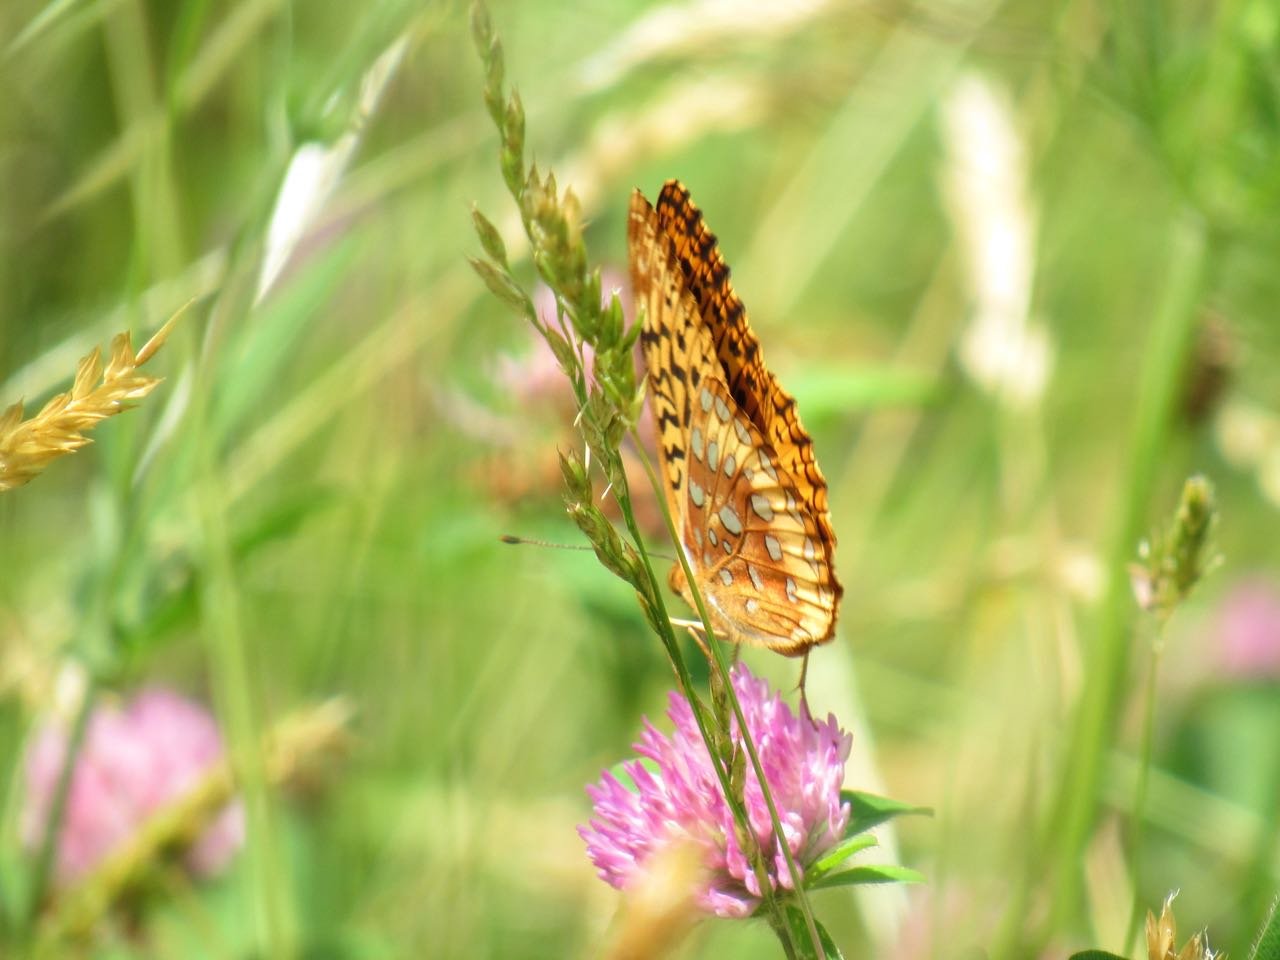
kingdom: Animalia
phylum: Arthropoda
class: Insecta
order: Lepidoptera
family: Nymphalidae
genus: Speyeria
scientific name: Speyeria cybele
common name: Great Spangled Fritillary
